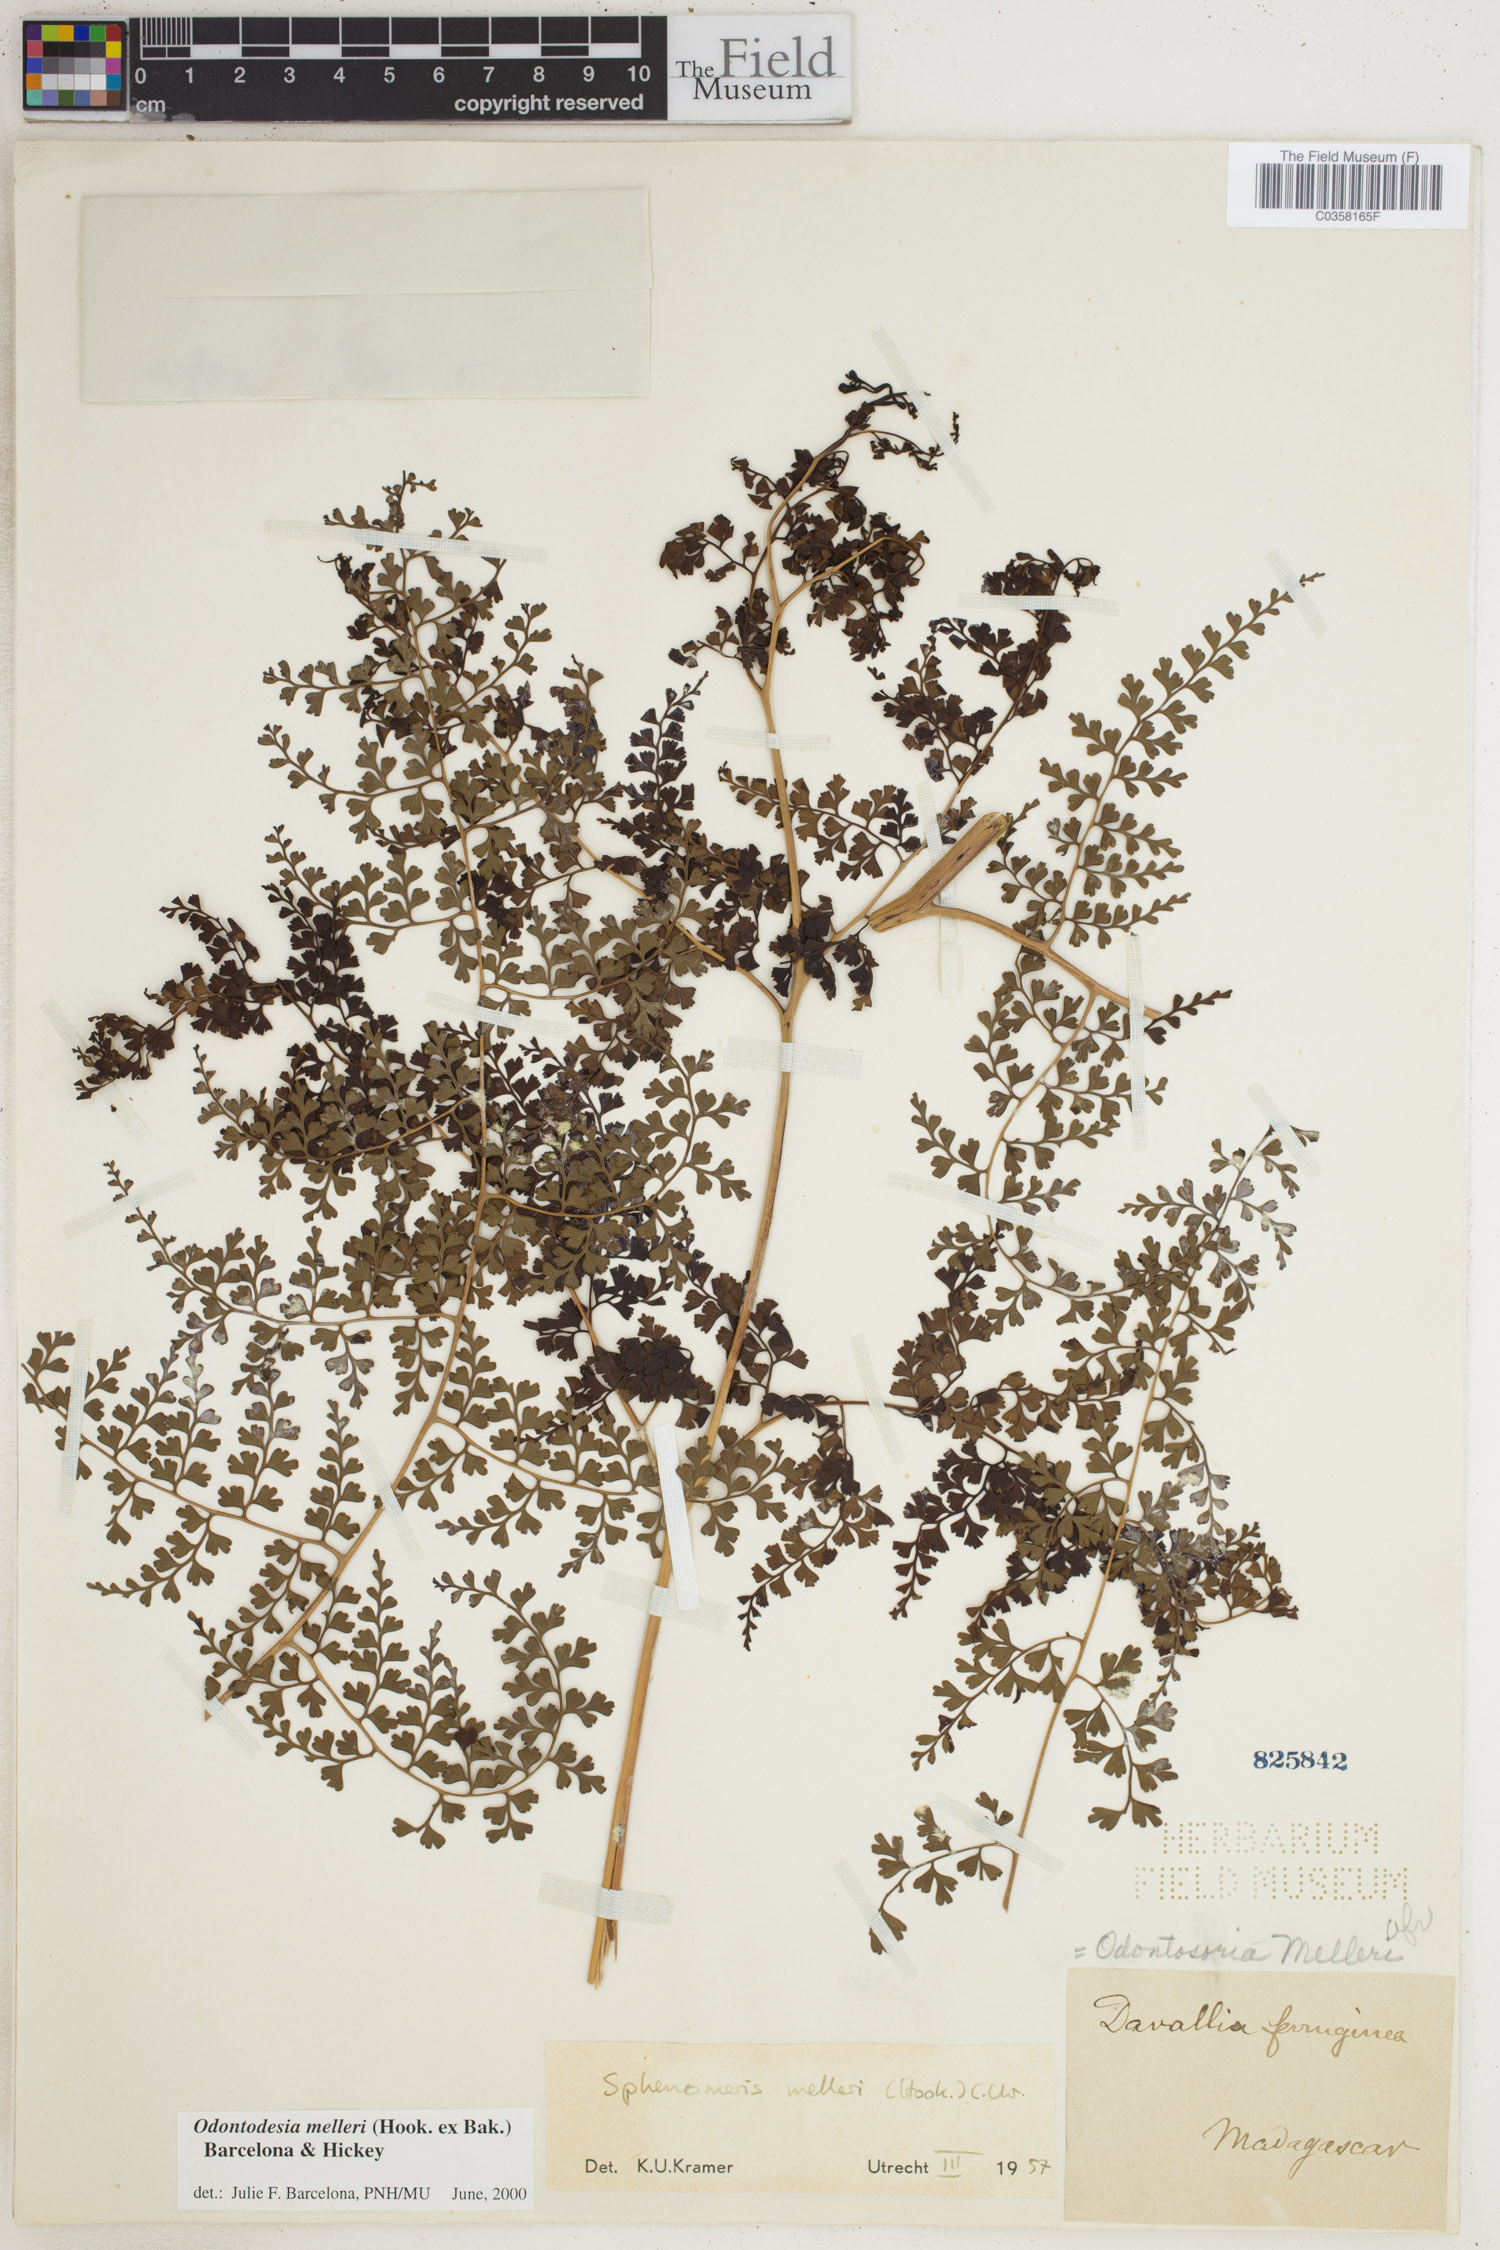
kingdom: Plantae
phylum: Tracheophyta
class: Polypodiopsida
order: Polypodiales
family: Lindsaeaceae
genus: Odontosoria
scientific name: Odontosoria melleri
